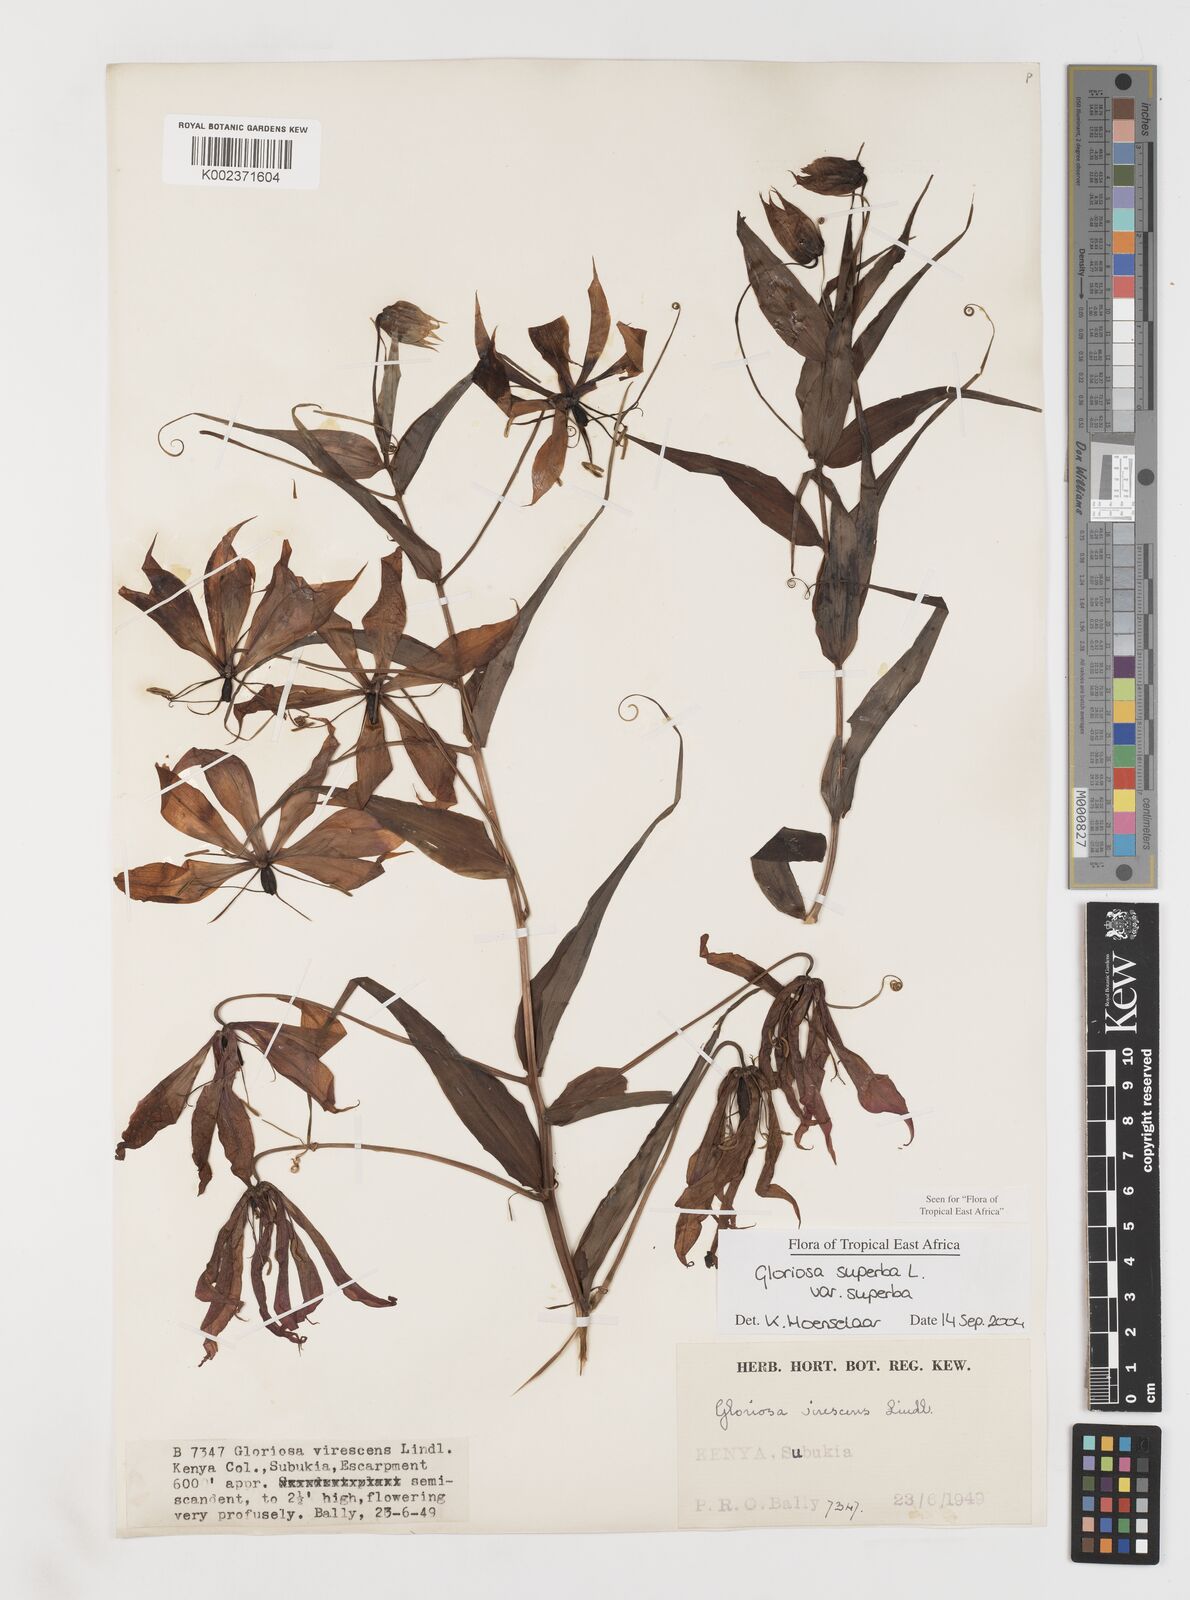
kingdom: Plantae
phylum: Tracheophyta
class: Liliopsida
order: Liliales
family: Colchicaceae
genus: Gloriosa
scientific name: Gloriosa simplex
